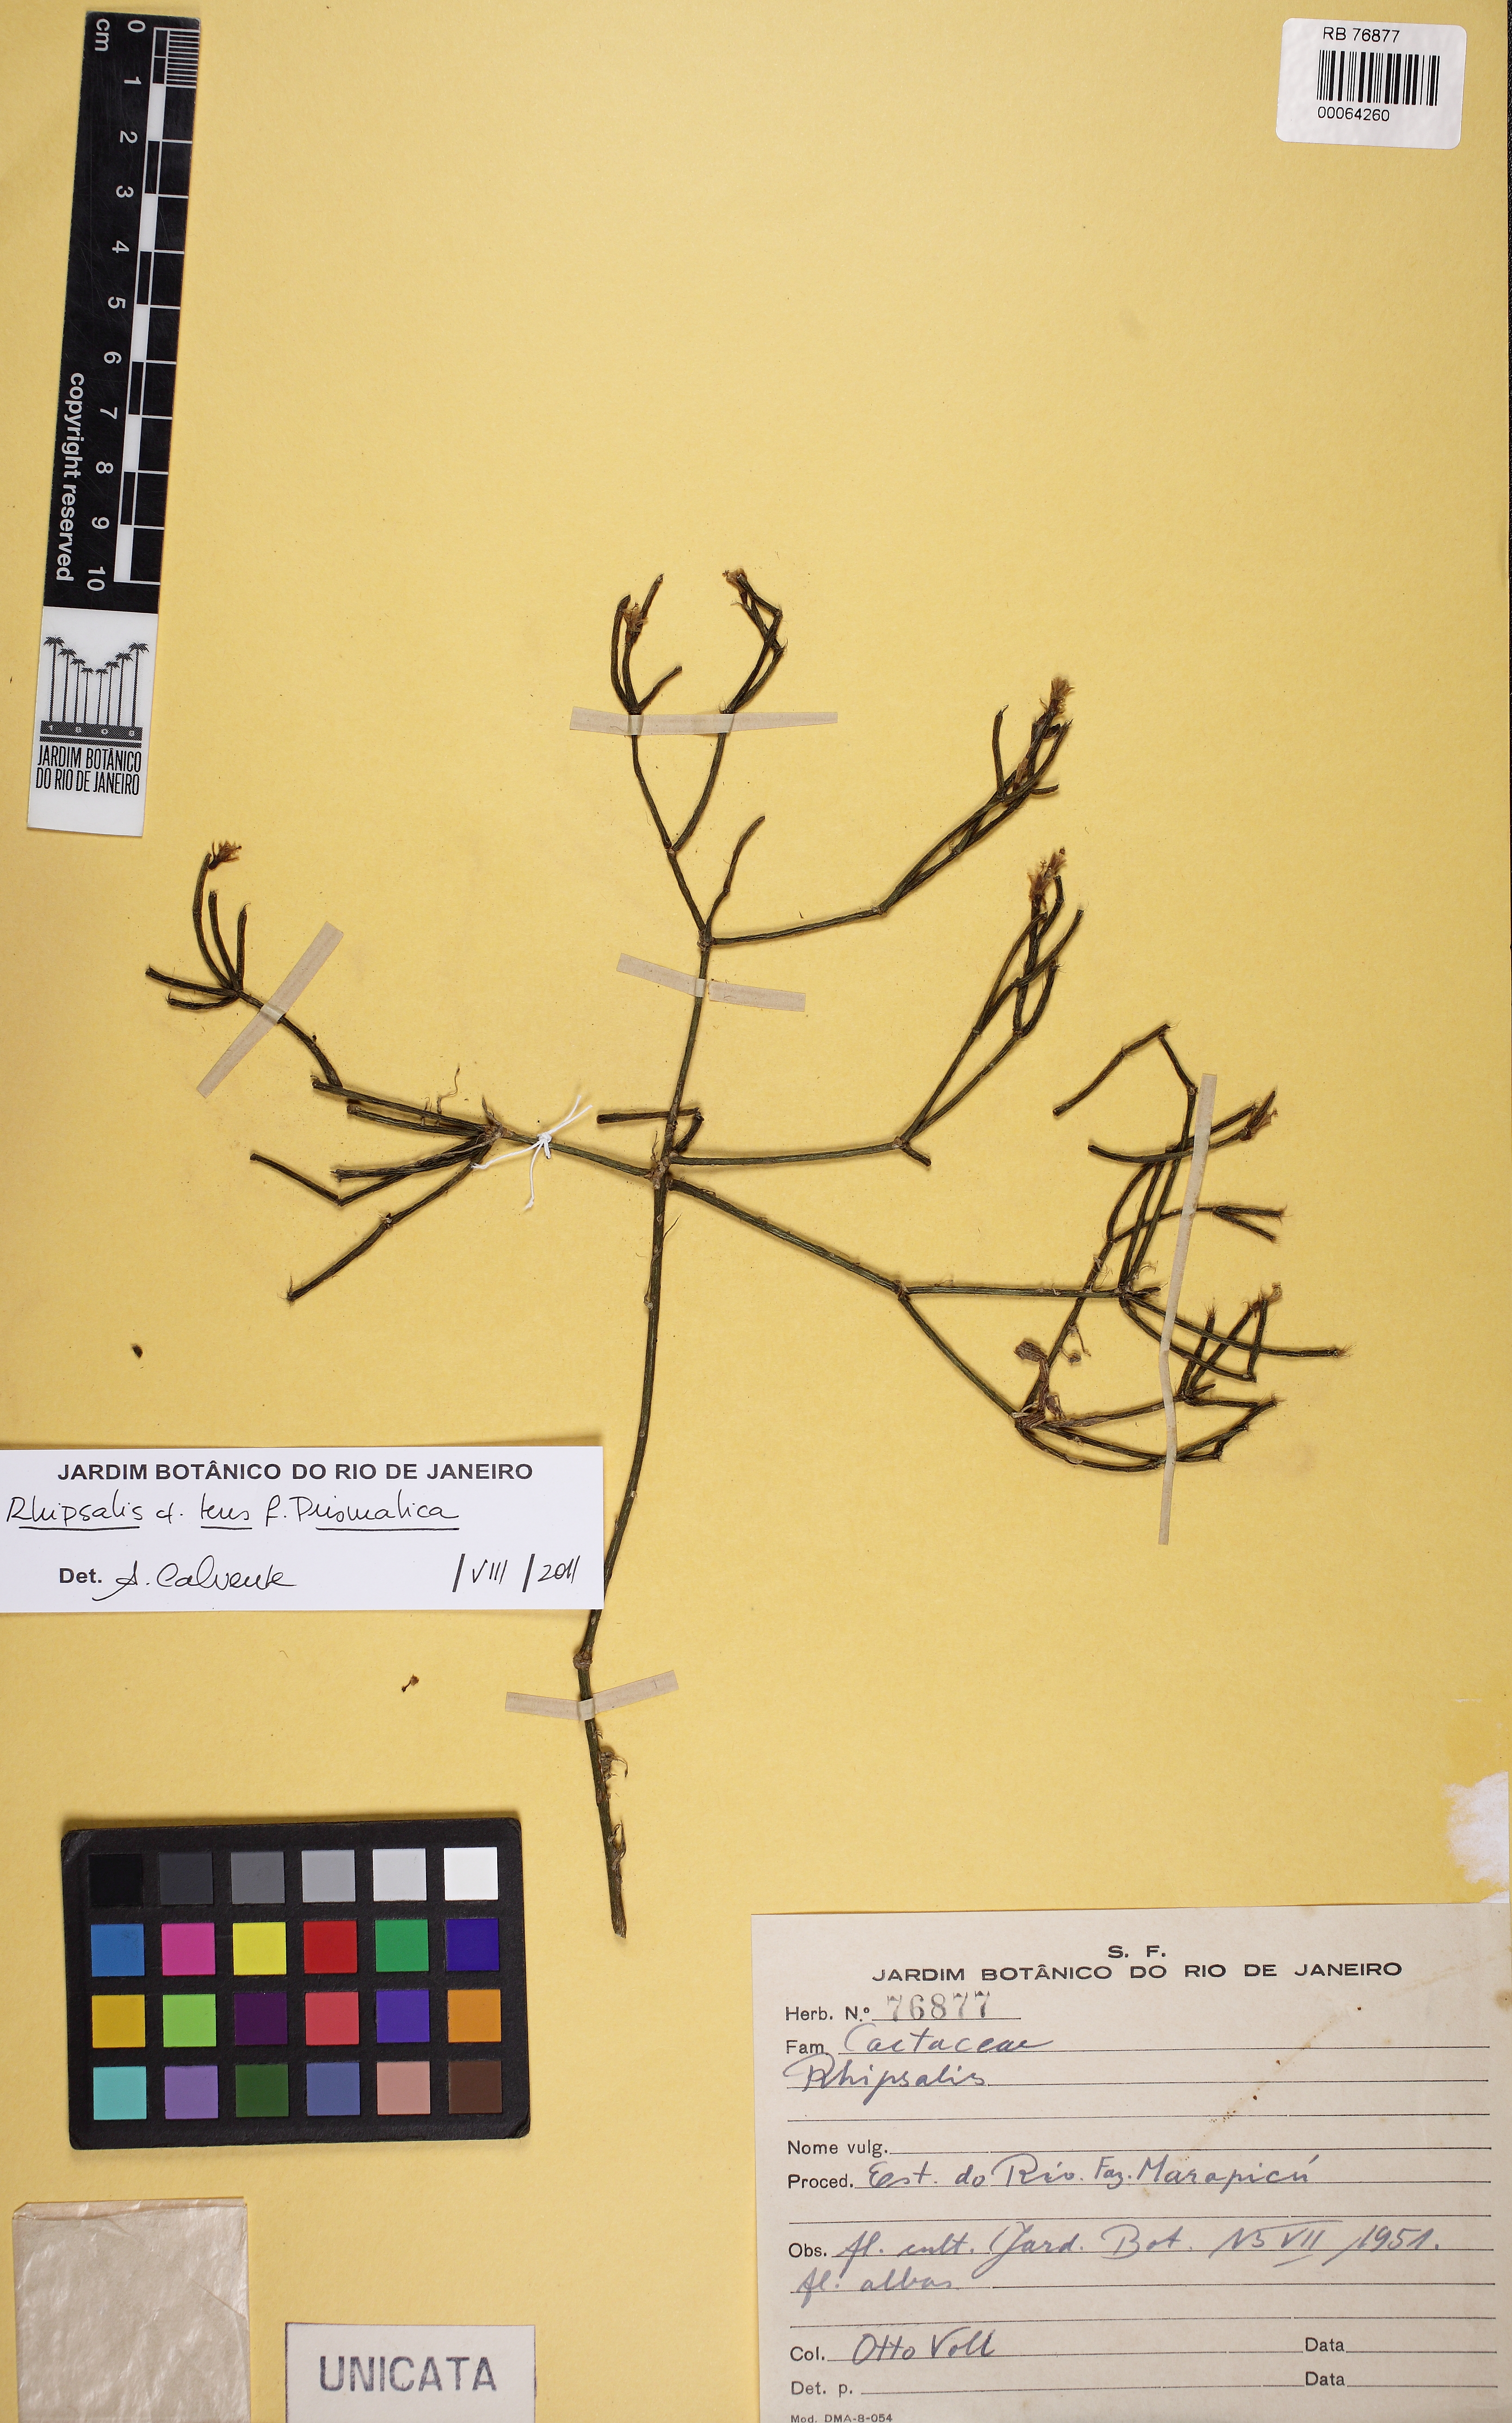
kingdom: Plantae
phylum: Tracheophyta
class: Magnoliopsida
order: Caryophyllales
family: Cactaceae
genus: Rhipsalis
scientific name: Rhipsalis teres
